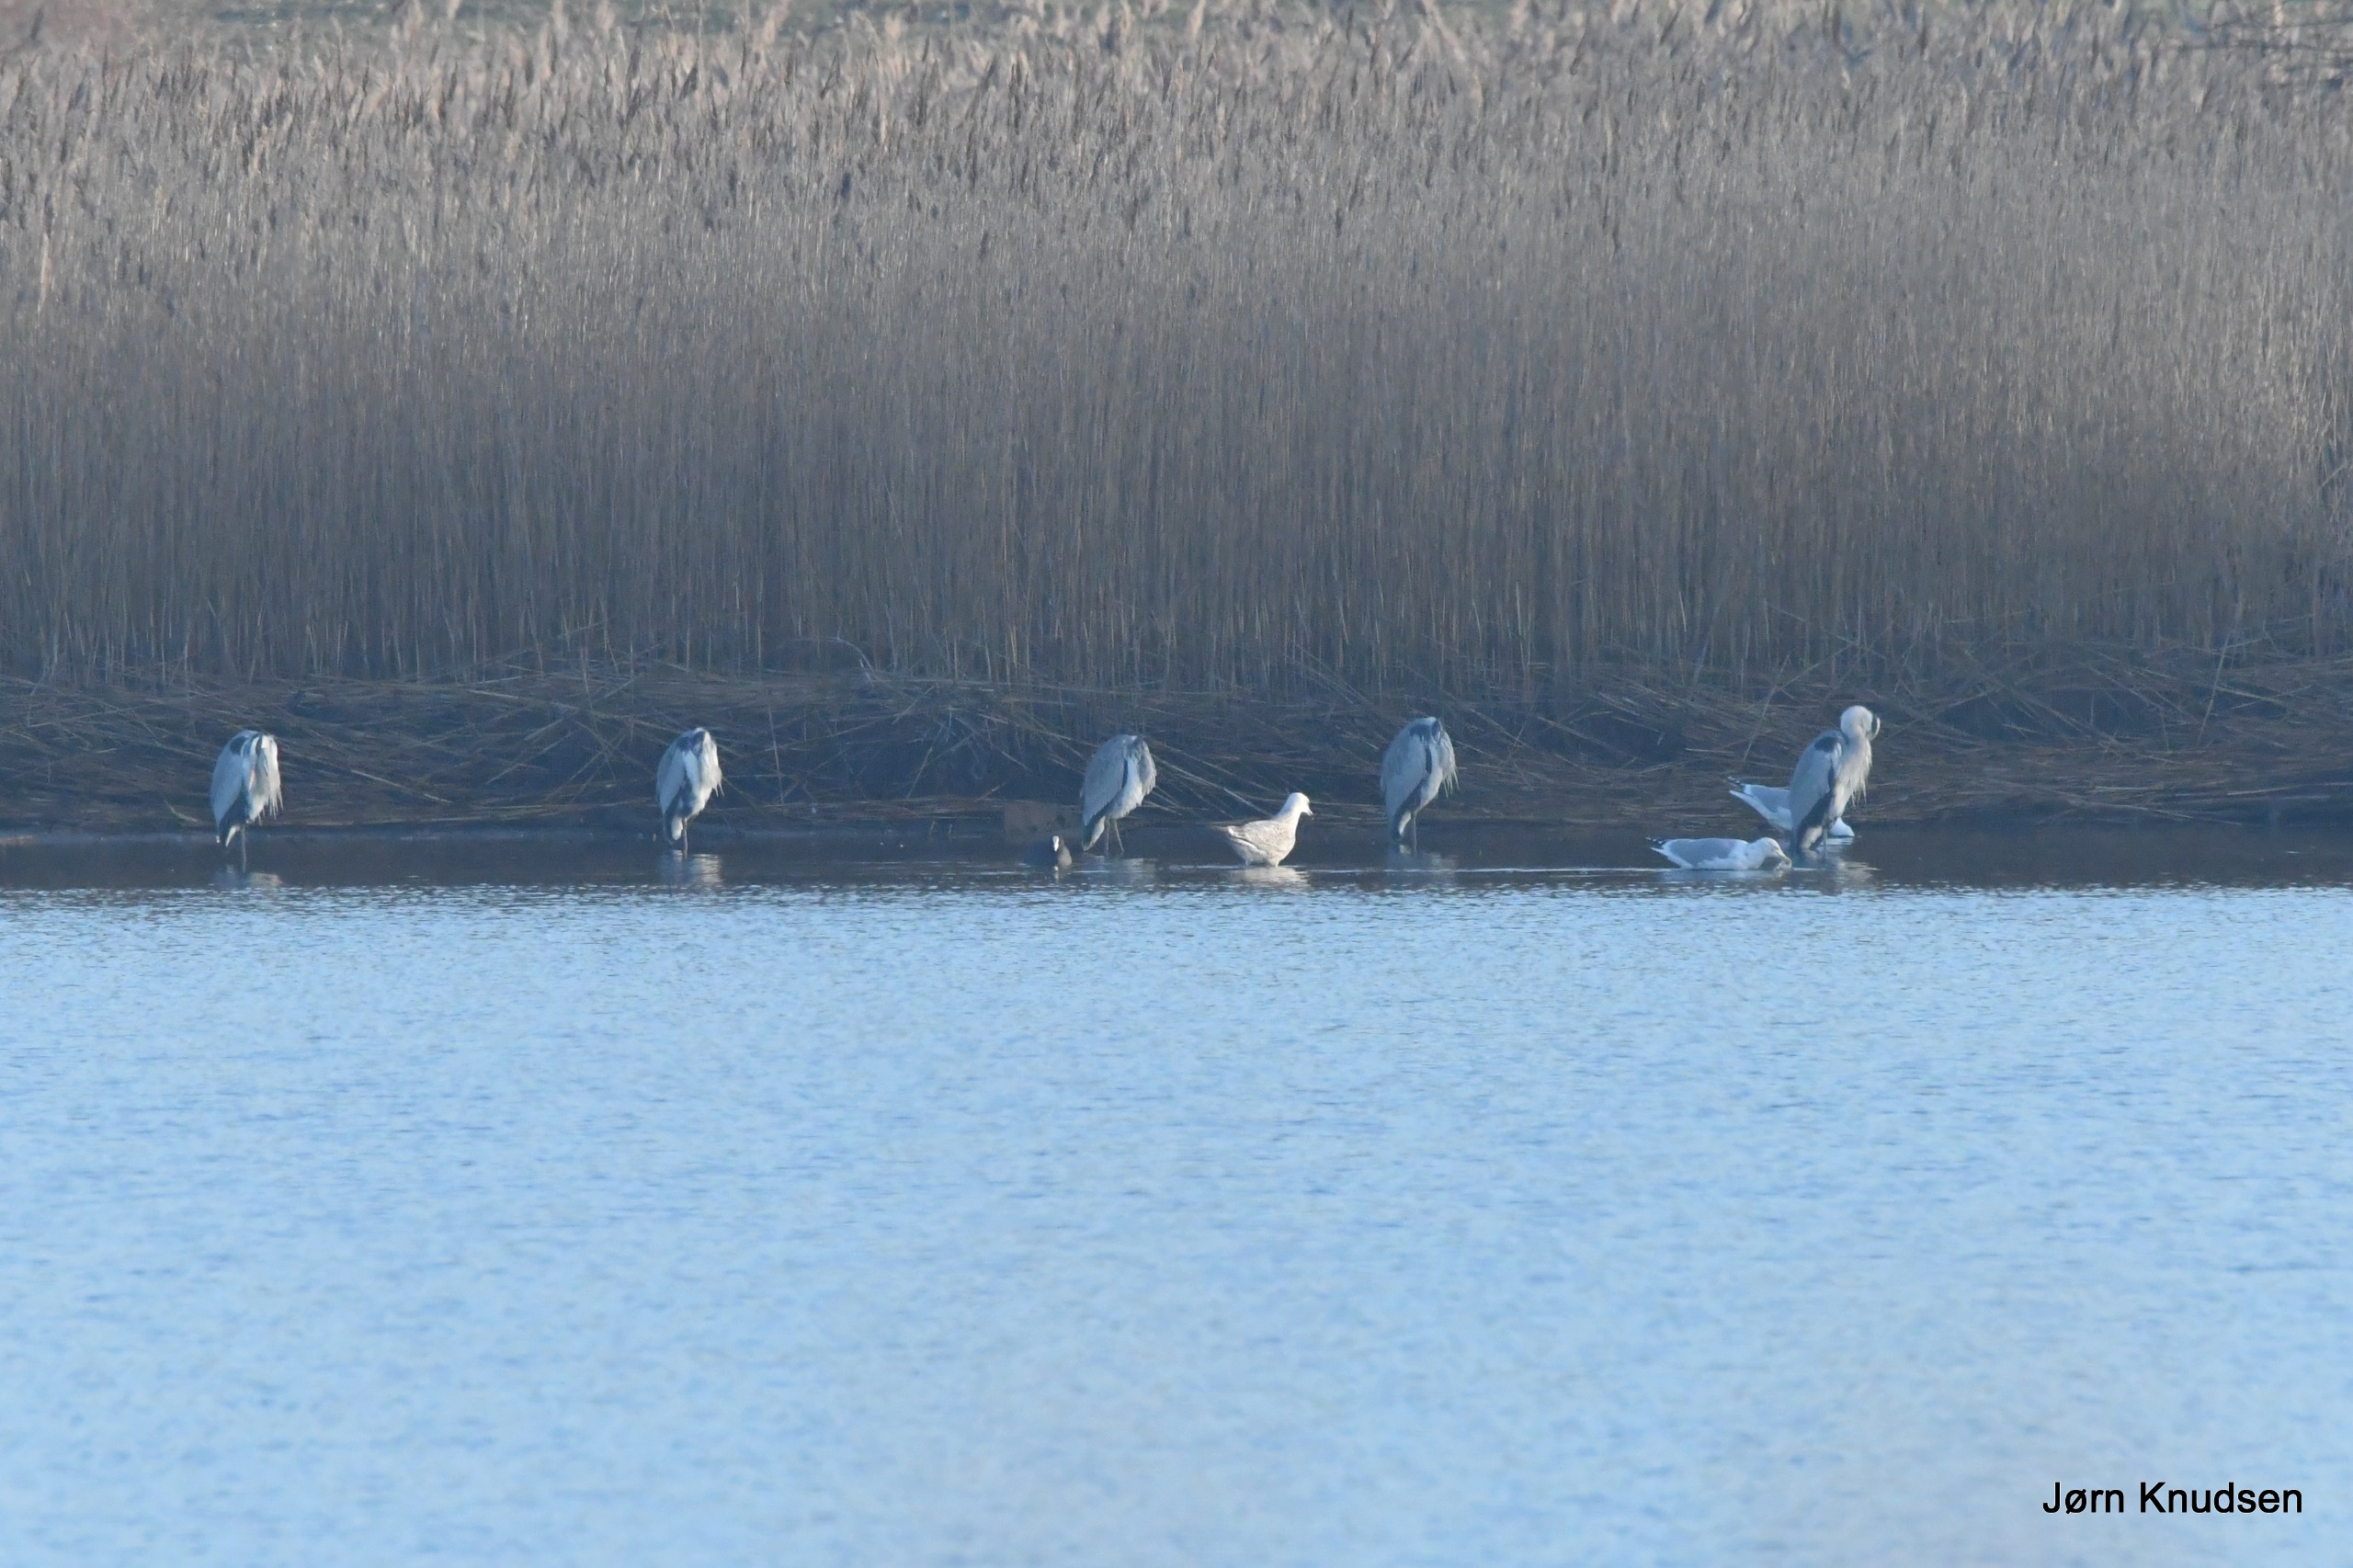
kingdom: Animalia
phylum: Chordata
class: Aves
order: Pelecaniformes
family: Ardeidae
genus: Ardea
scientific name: Ardea cinerea
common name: Fiskehejre
